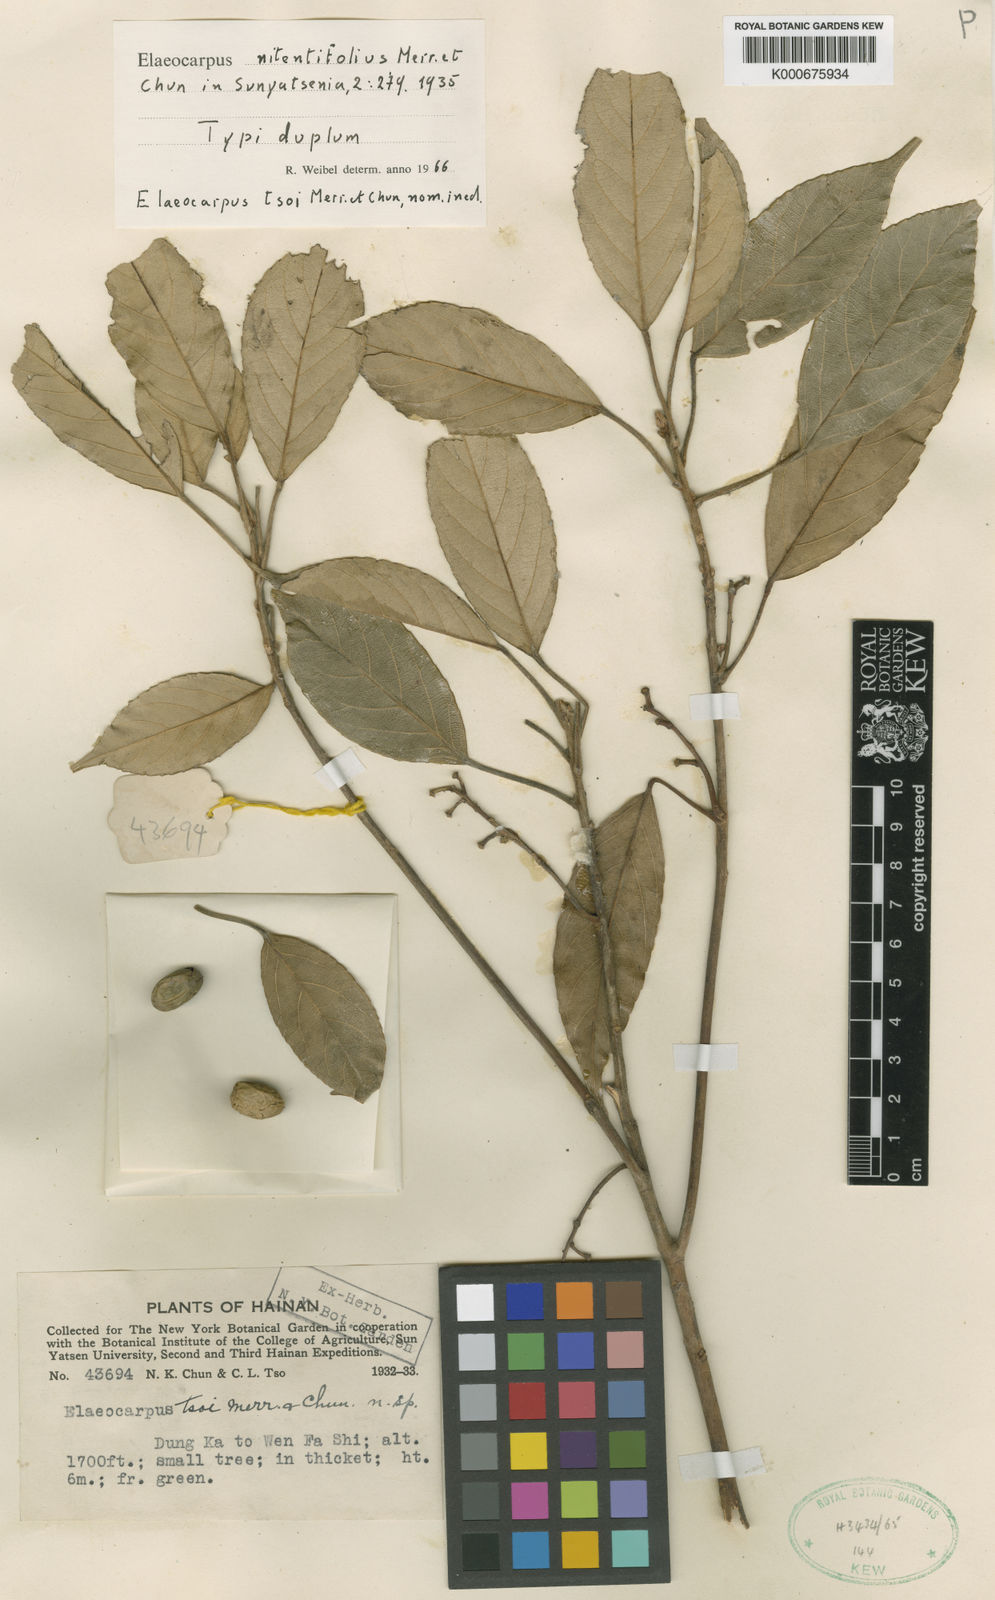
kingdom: Plantae
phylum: Tracheophyta
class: Magnoliopsida
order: Oxalidales
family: Elaeocarpaceae
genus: Elaeocarpus
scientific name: Elaeocarpus nitentifolius
